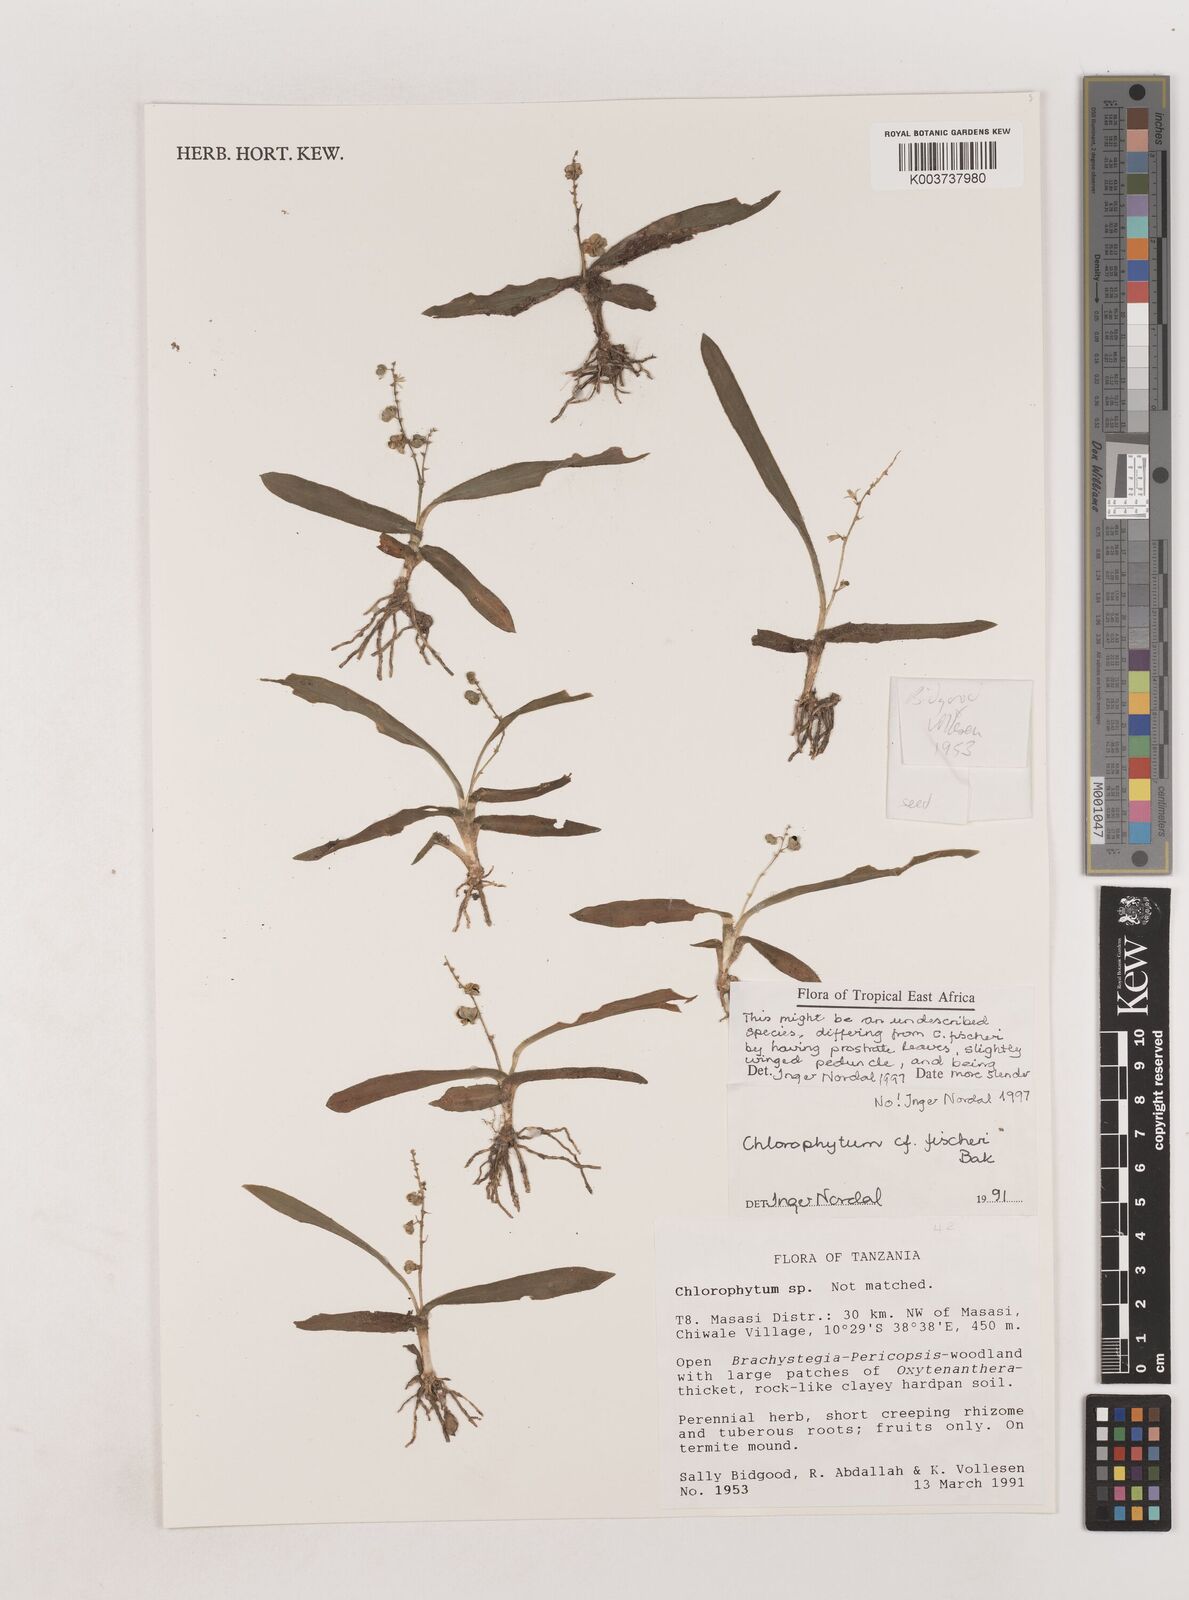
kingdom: Plantae
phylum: Tracheophyta
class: Liliopsida
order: Asparagales
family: Asparagaceae
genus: Chlorophytum
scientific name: Chlorophytum fischeri
